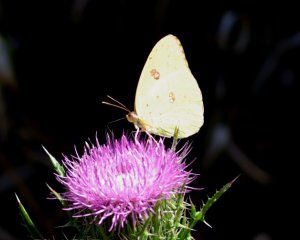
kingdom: Animalia
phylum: Arthropoda
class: Insecta
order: Lepidoptera
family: Pieridae
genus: Phoebis
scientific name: Phoebis sennae
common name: Cloudless Sulphur
